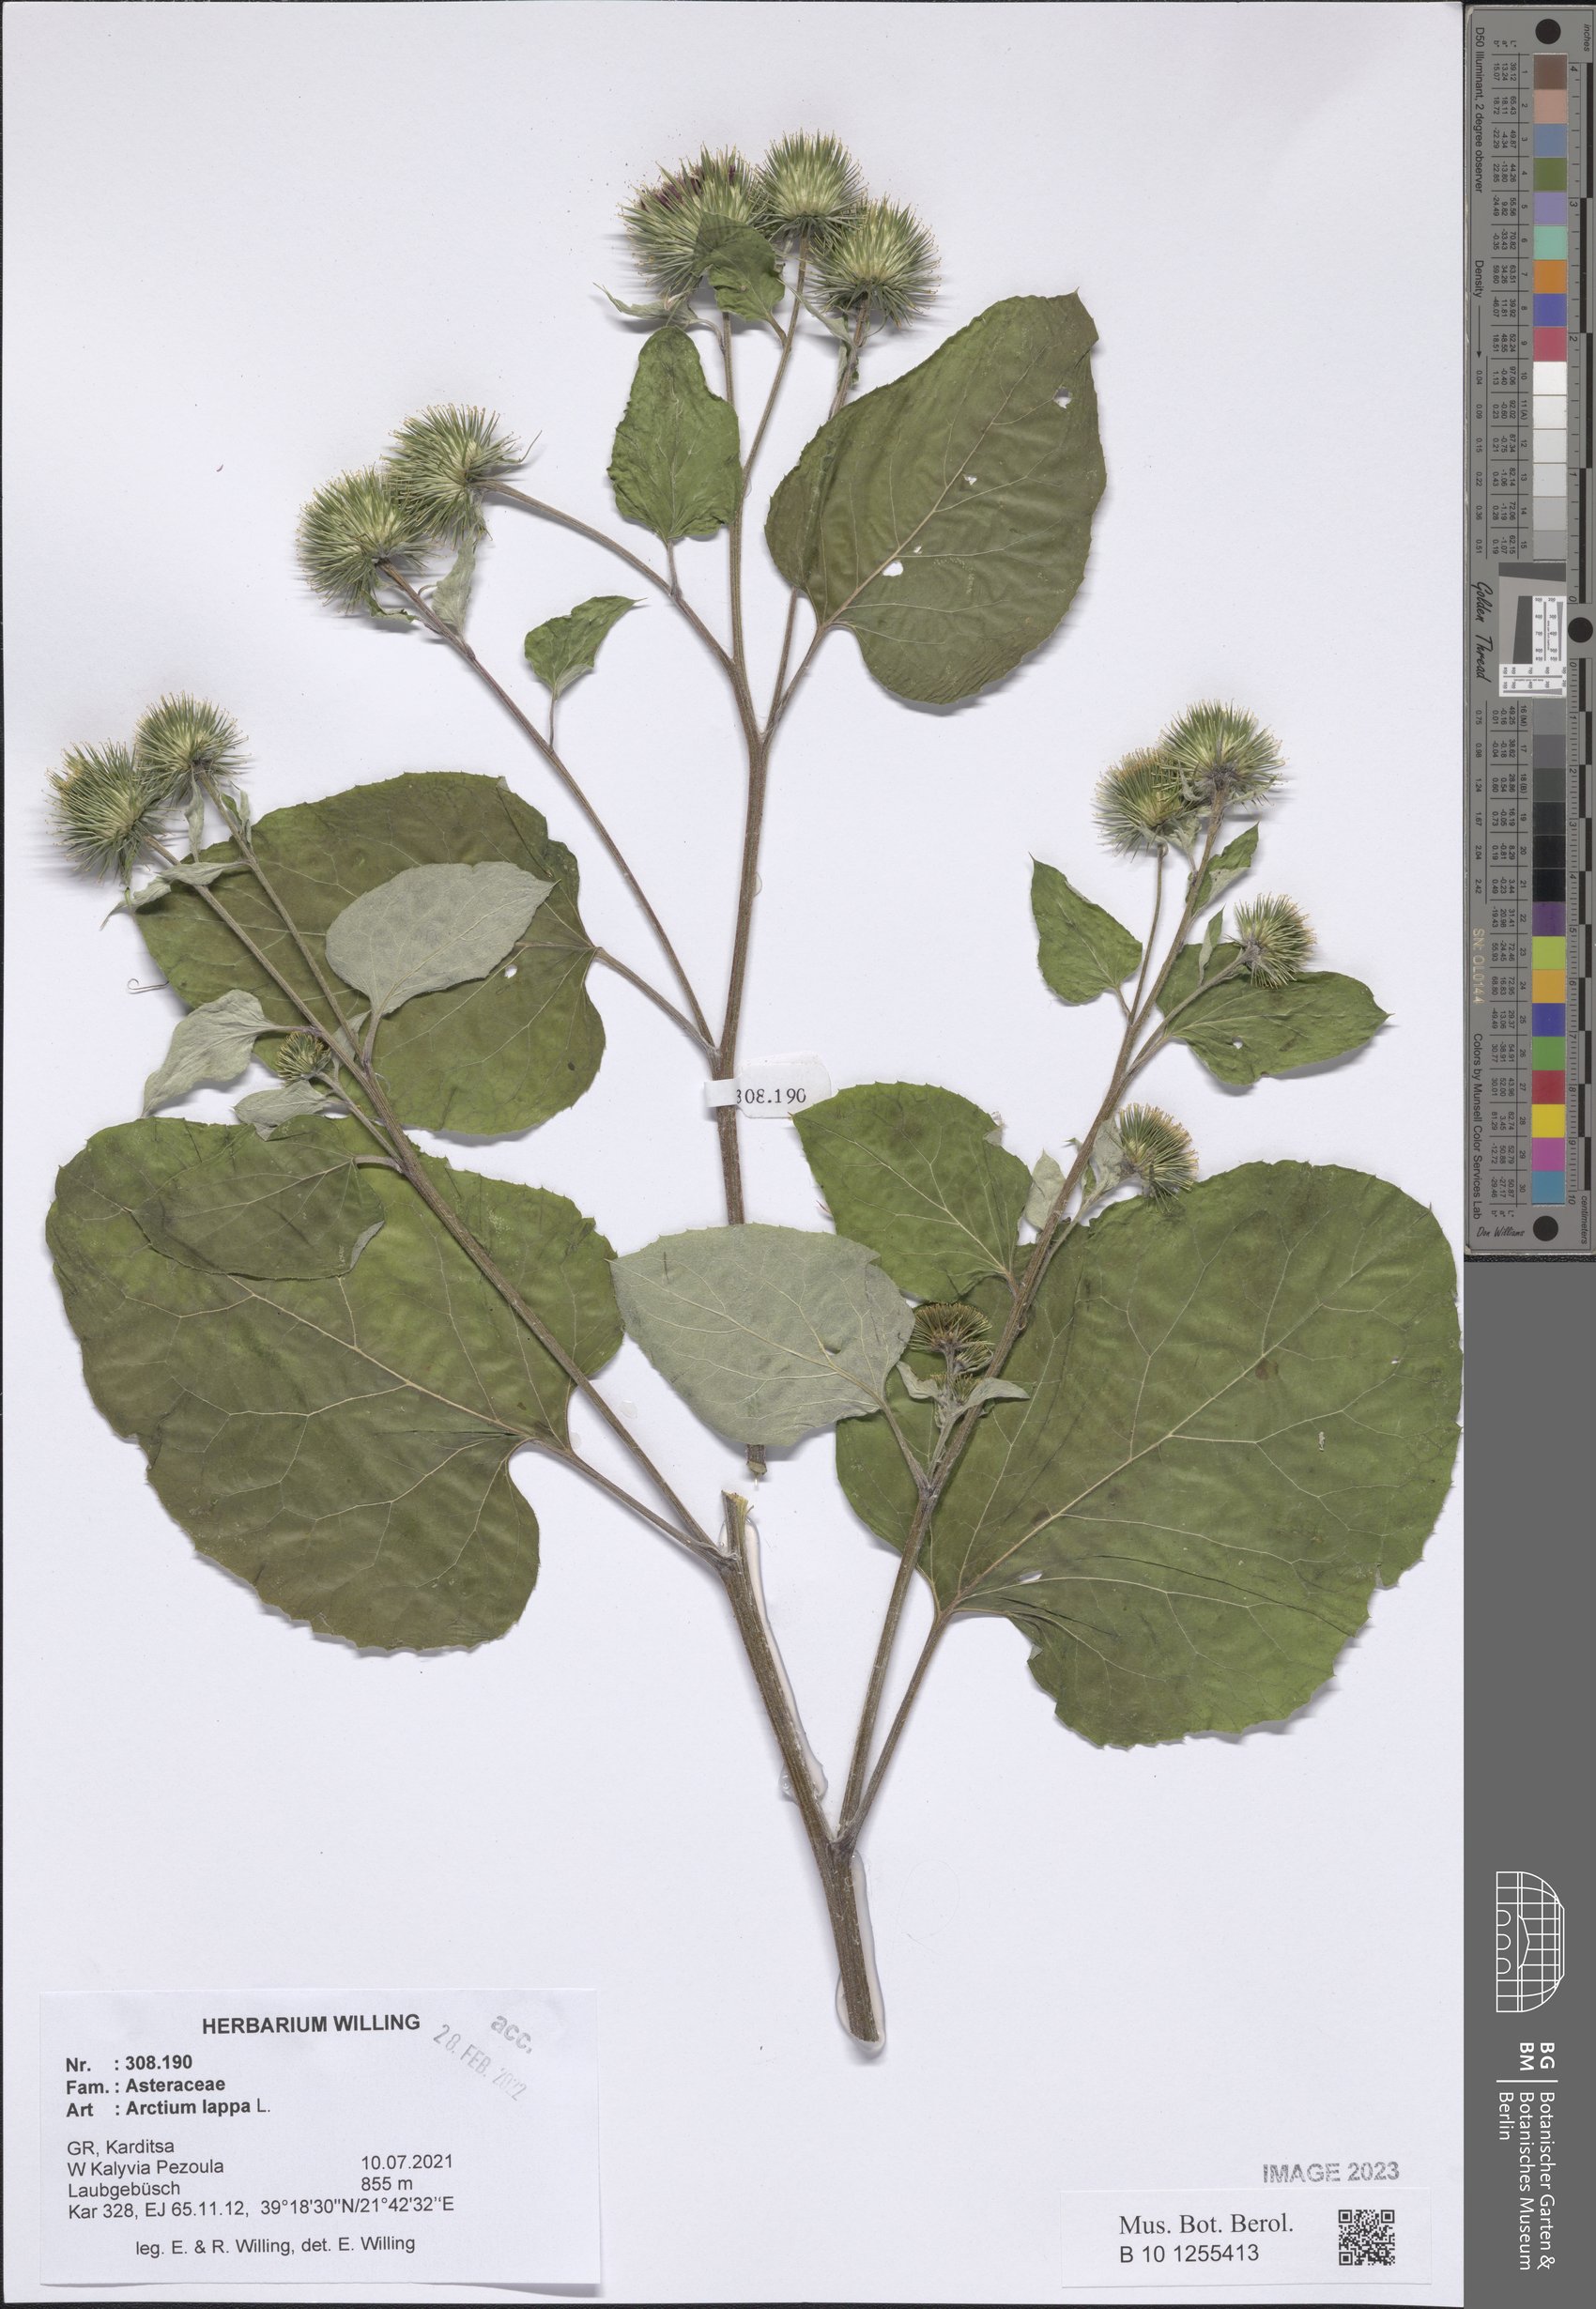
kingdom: Plantae
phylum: Tracheophyta
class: Magnoliopsida
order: Asterales
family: Asteraceae
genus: Arctium
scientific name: Arctium lappa
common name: Greater burdock
